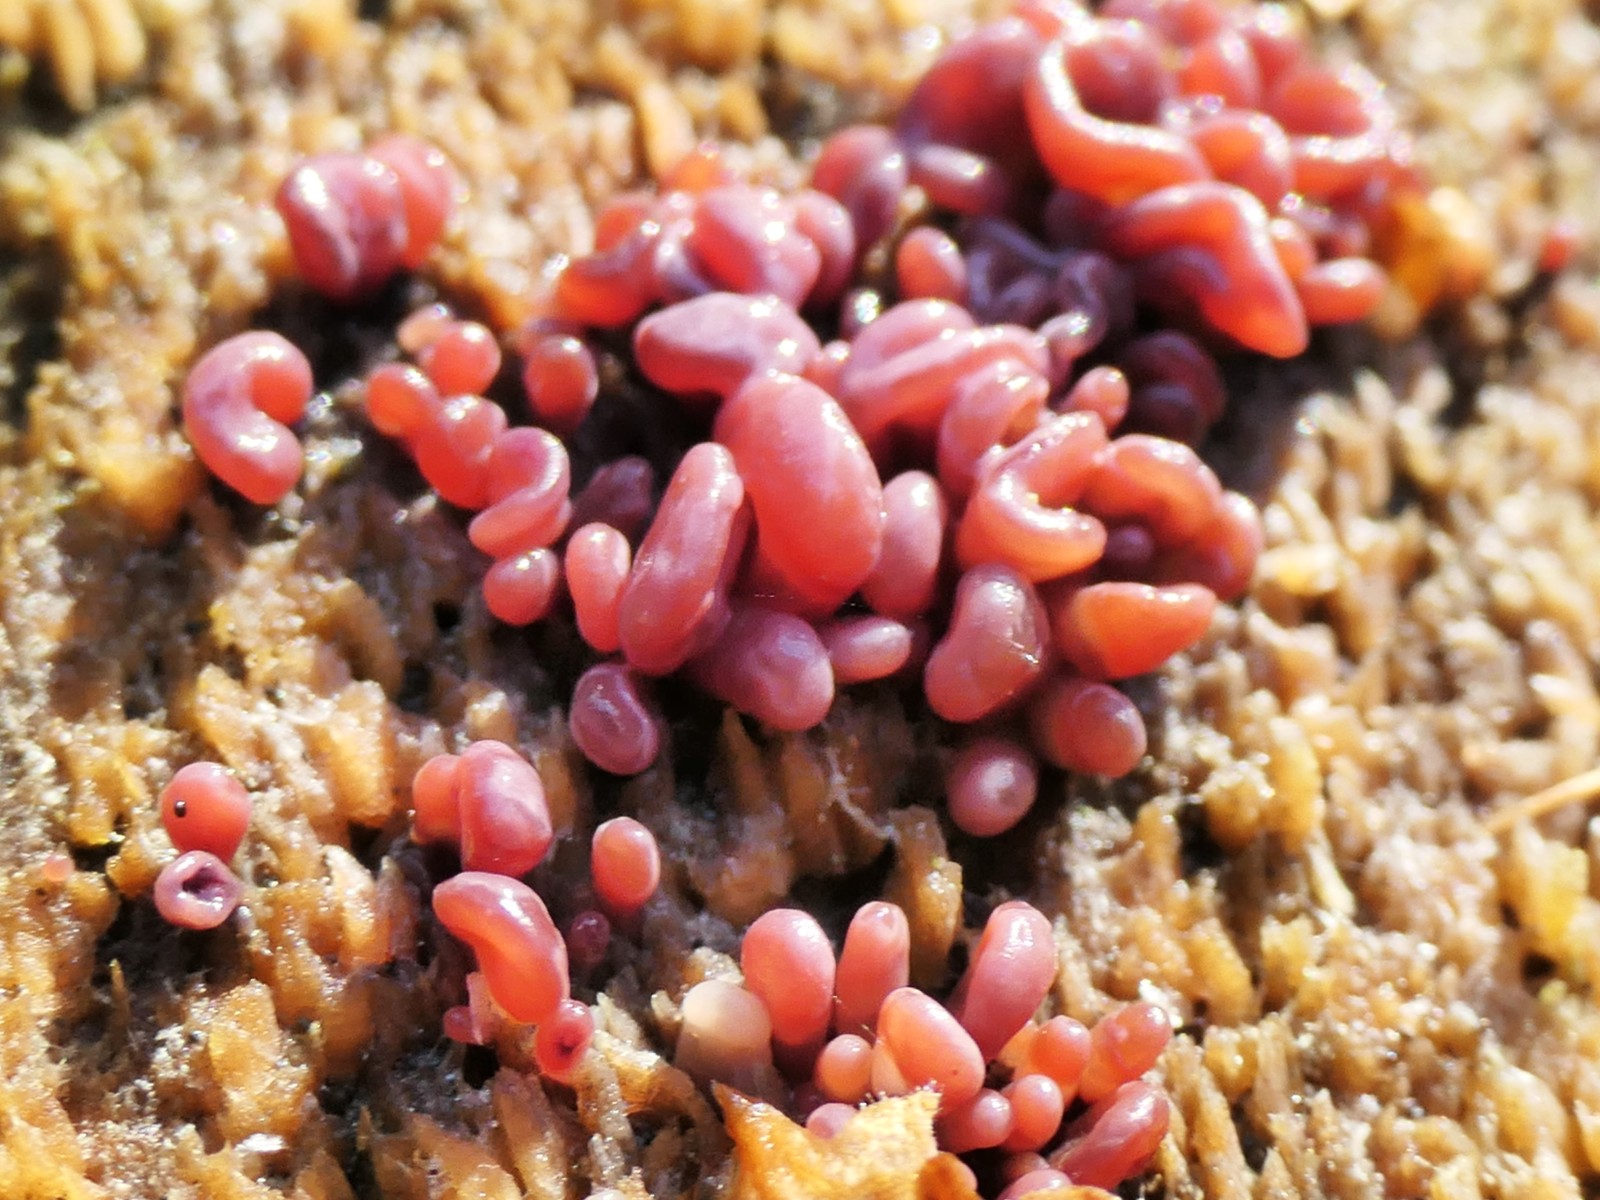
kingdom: Fungi
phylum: Ascomycota
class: Leotiomycetes
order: Helotiales
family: Gelatinodiscaceae
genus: Ascocoryne
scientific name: Ascocoryne sarcoides
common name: rødlilla sejskive
